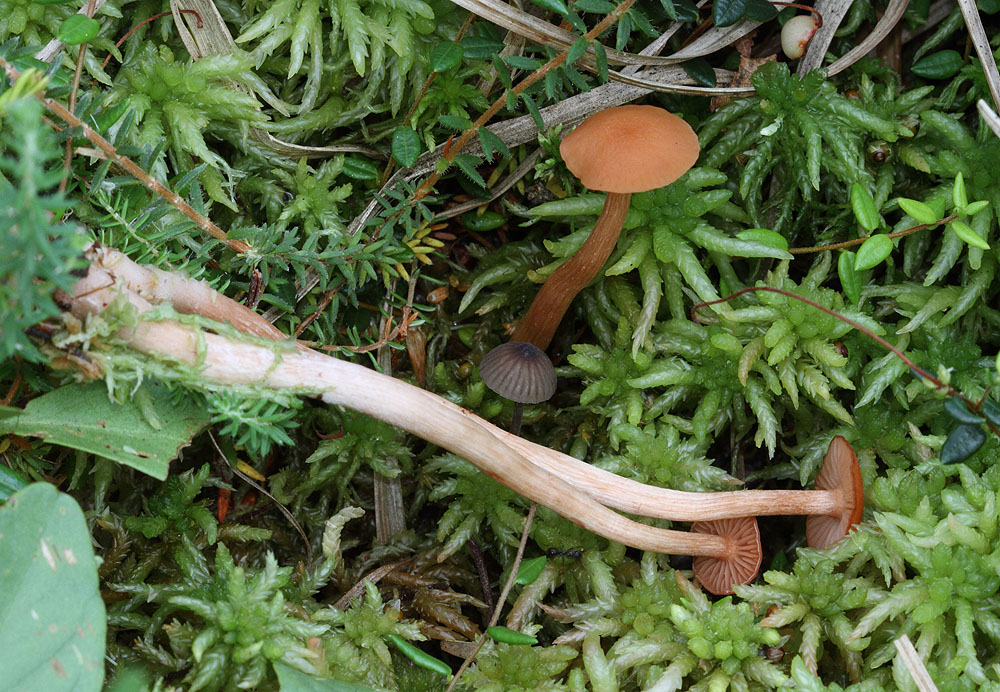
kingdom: Fungi
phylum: Basidiomycota
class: Agaricomycetes
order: Agaricales
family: Hydnangiaceae
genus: Laccaria
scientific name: Laccaria laccata
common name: rød ametysthat
